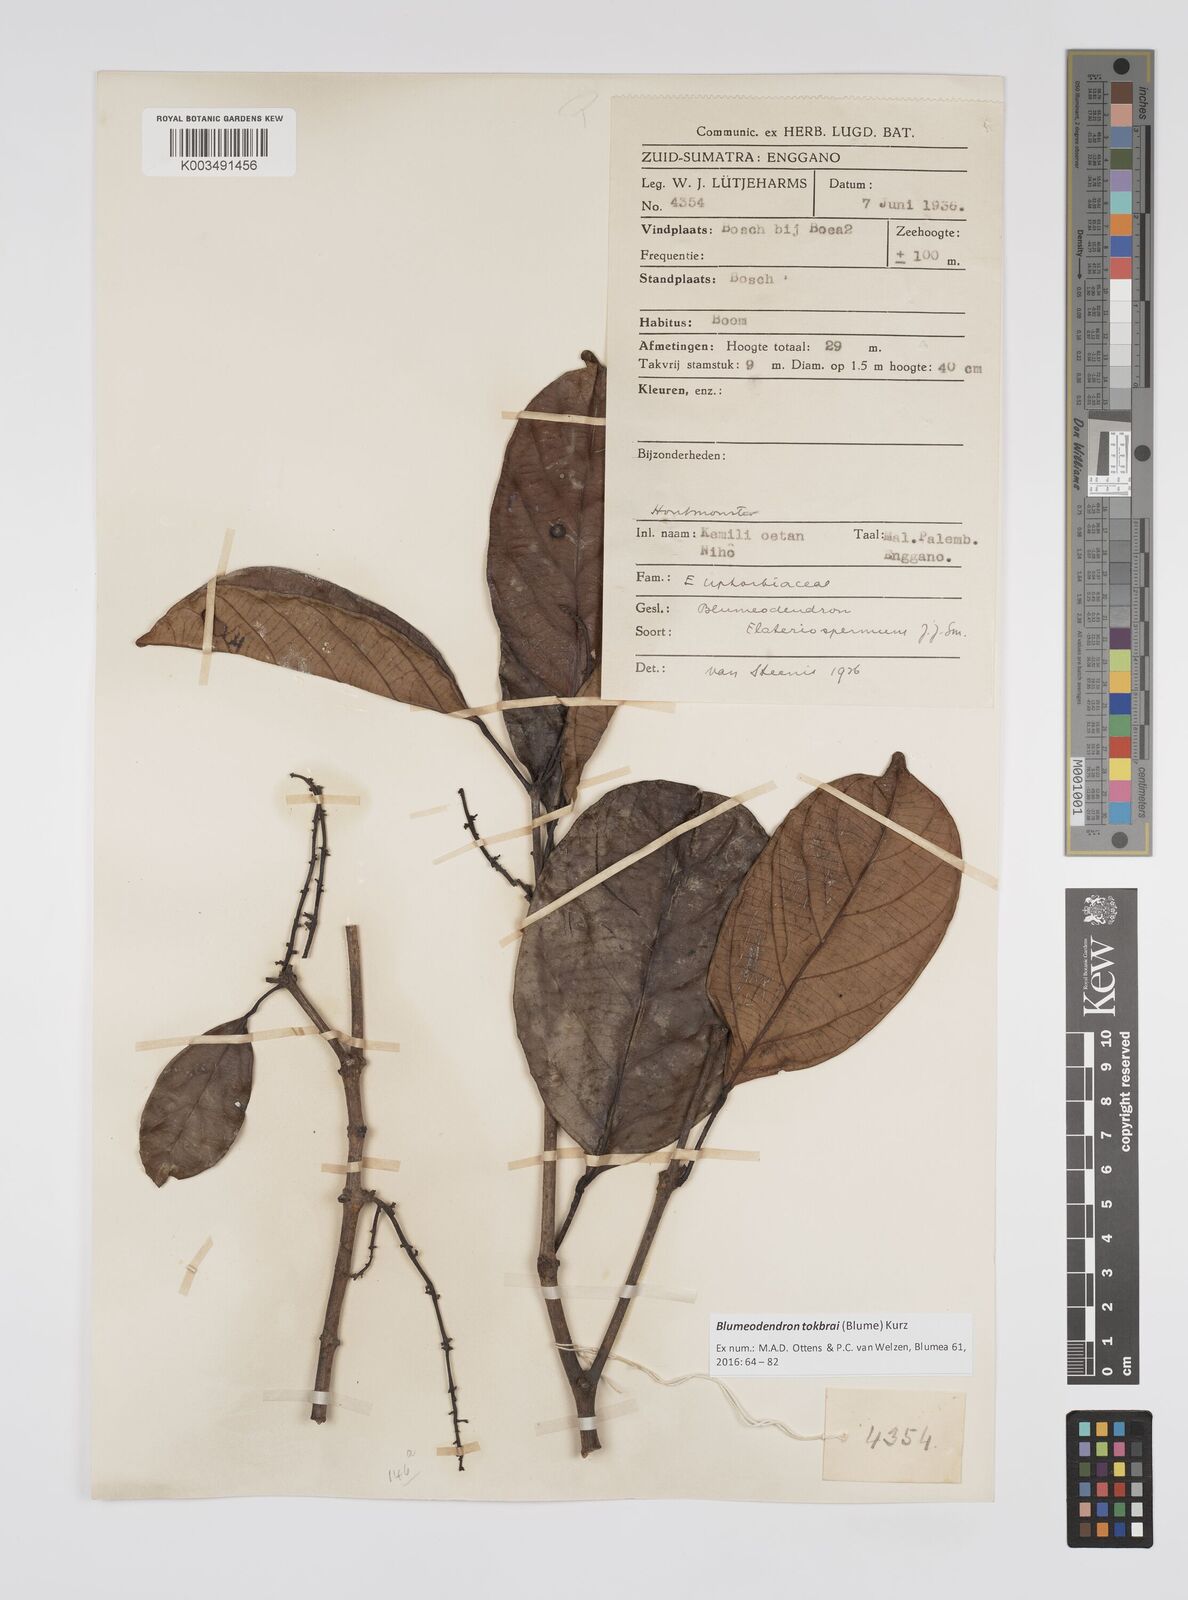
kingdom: Plantae
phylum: Tracheophyta
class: Magnoliopsida
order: Malpighiales
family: Euphorbiaceae
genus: Blumeodendron
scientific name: Blumeodendron tokbrai
